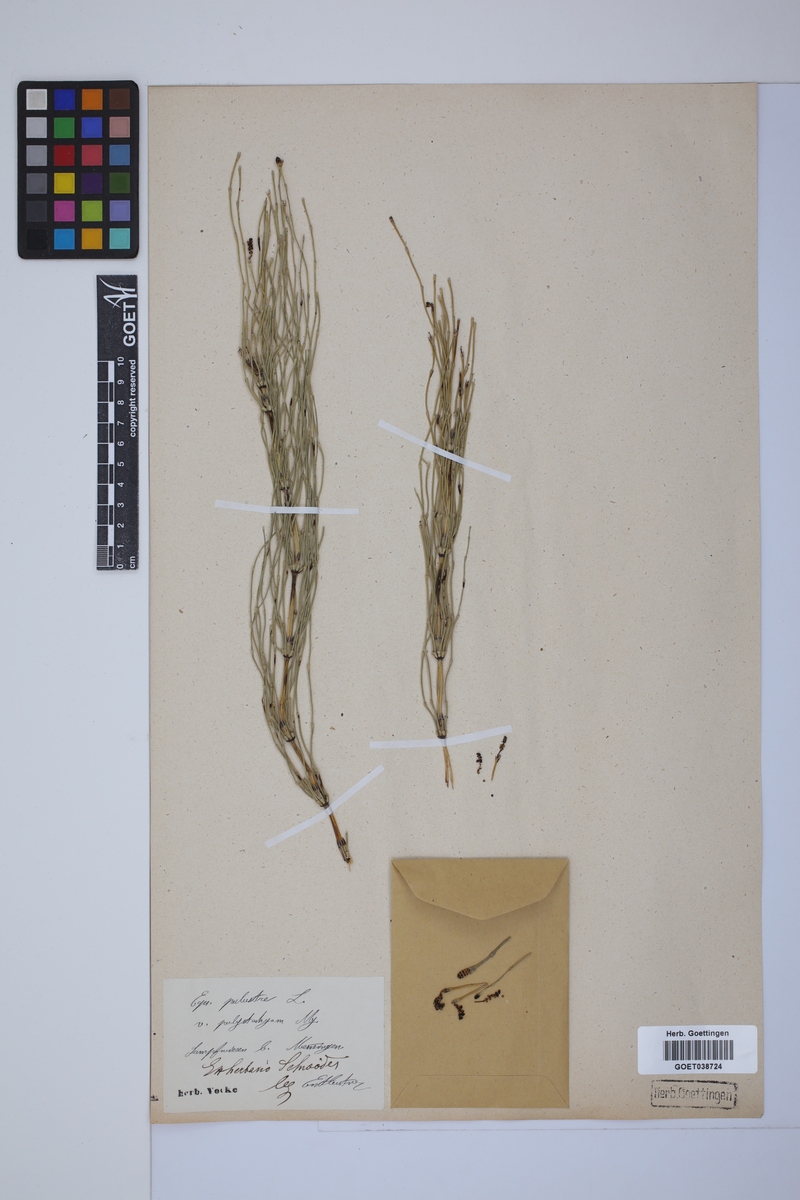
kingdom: Plantae
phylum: Tracheophyta
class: Polypodiopsida
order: Equisetales
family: Equisetaceae
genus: Equisetum
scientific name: Equisetum palustre
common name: Marsh horsetail
